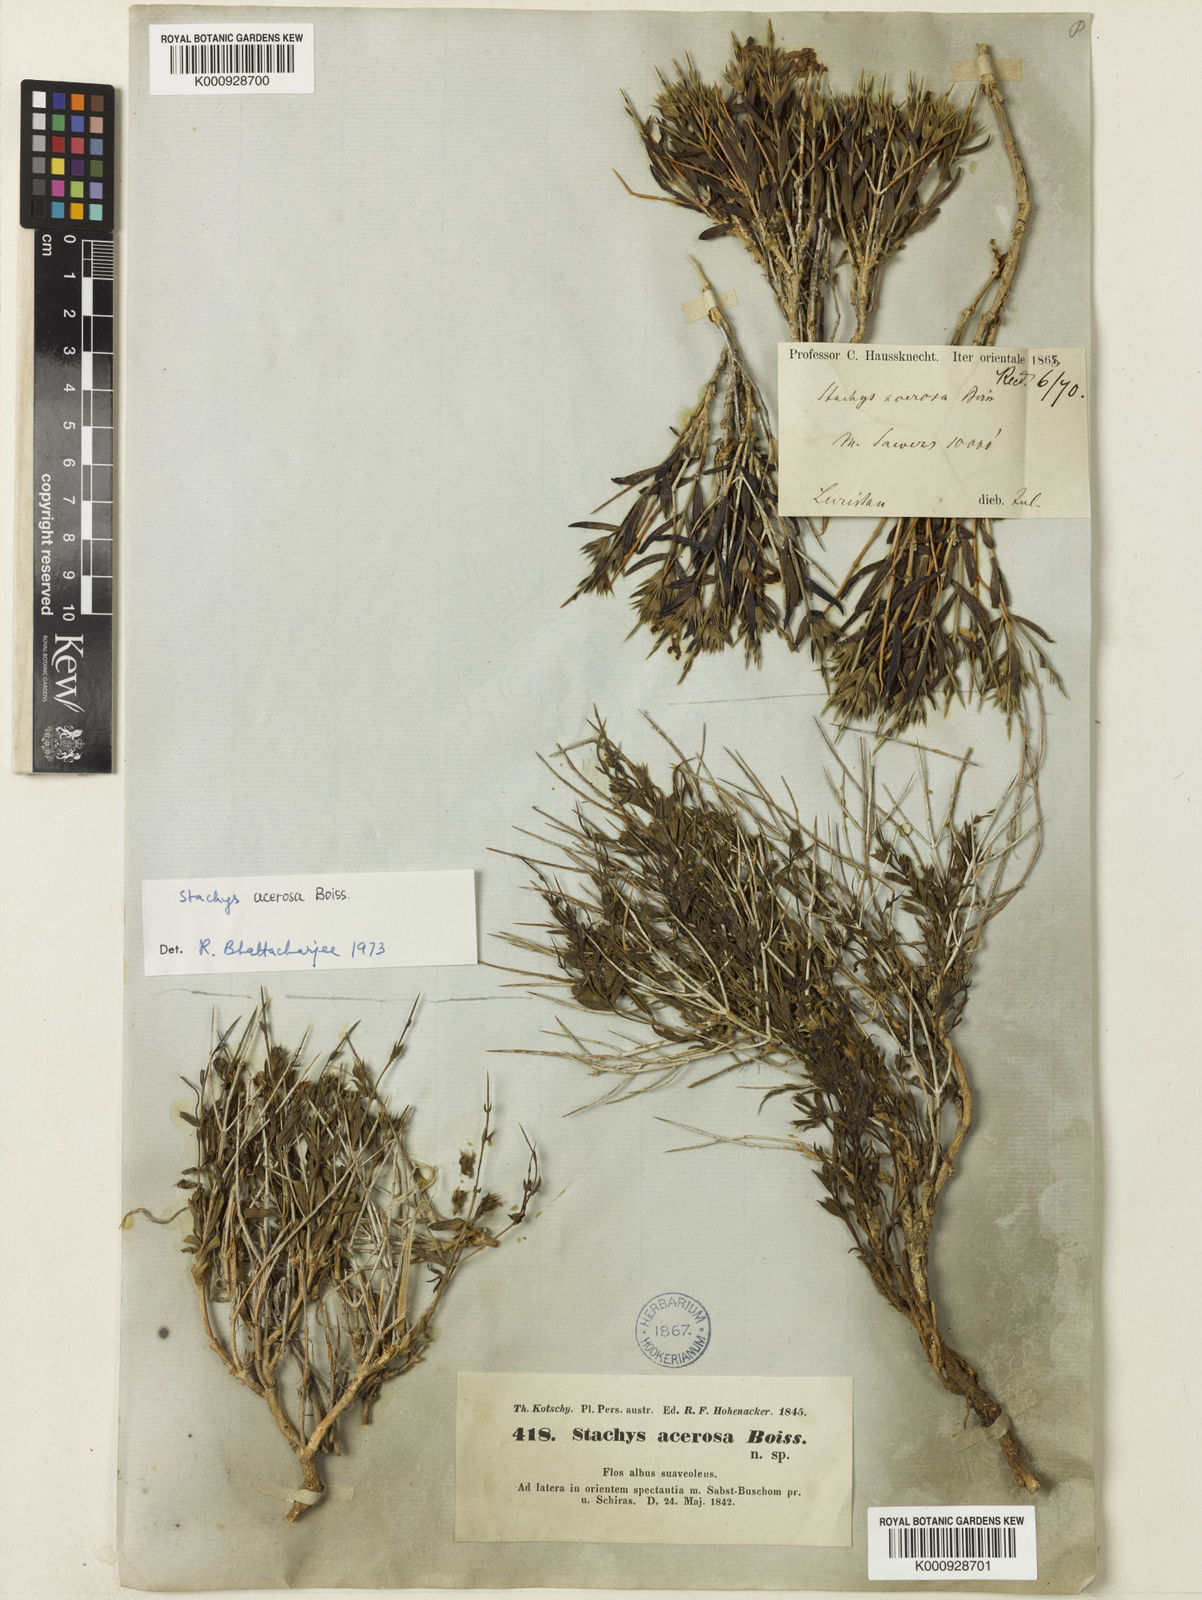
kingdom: Plantae
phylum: Tracheophyta
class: Magnoliopsida
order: Lamiales
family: Lamiaceae
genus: Stachys
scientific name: Stachys acerosa
